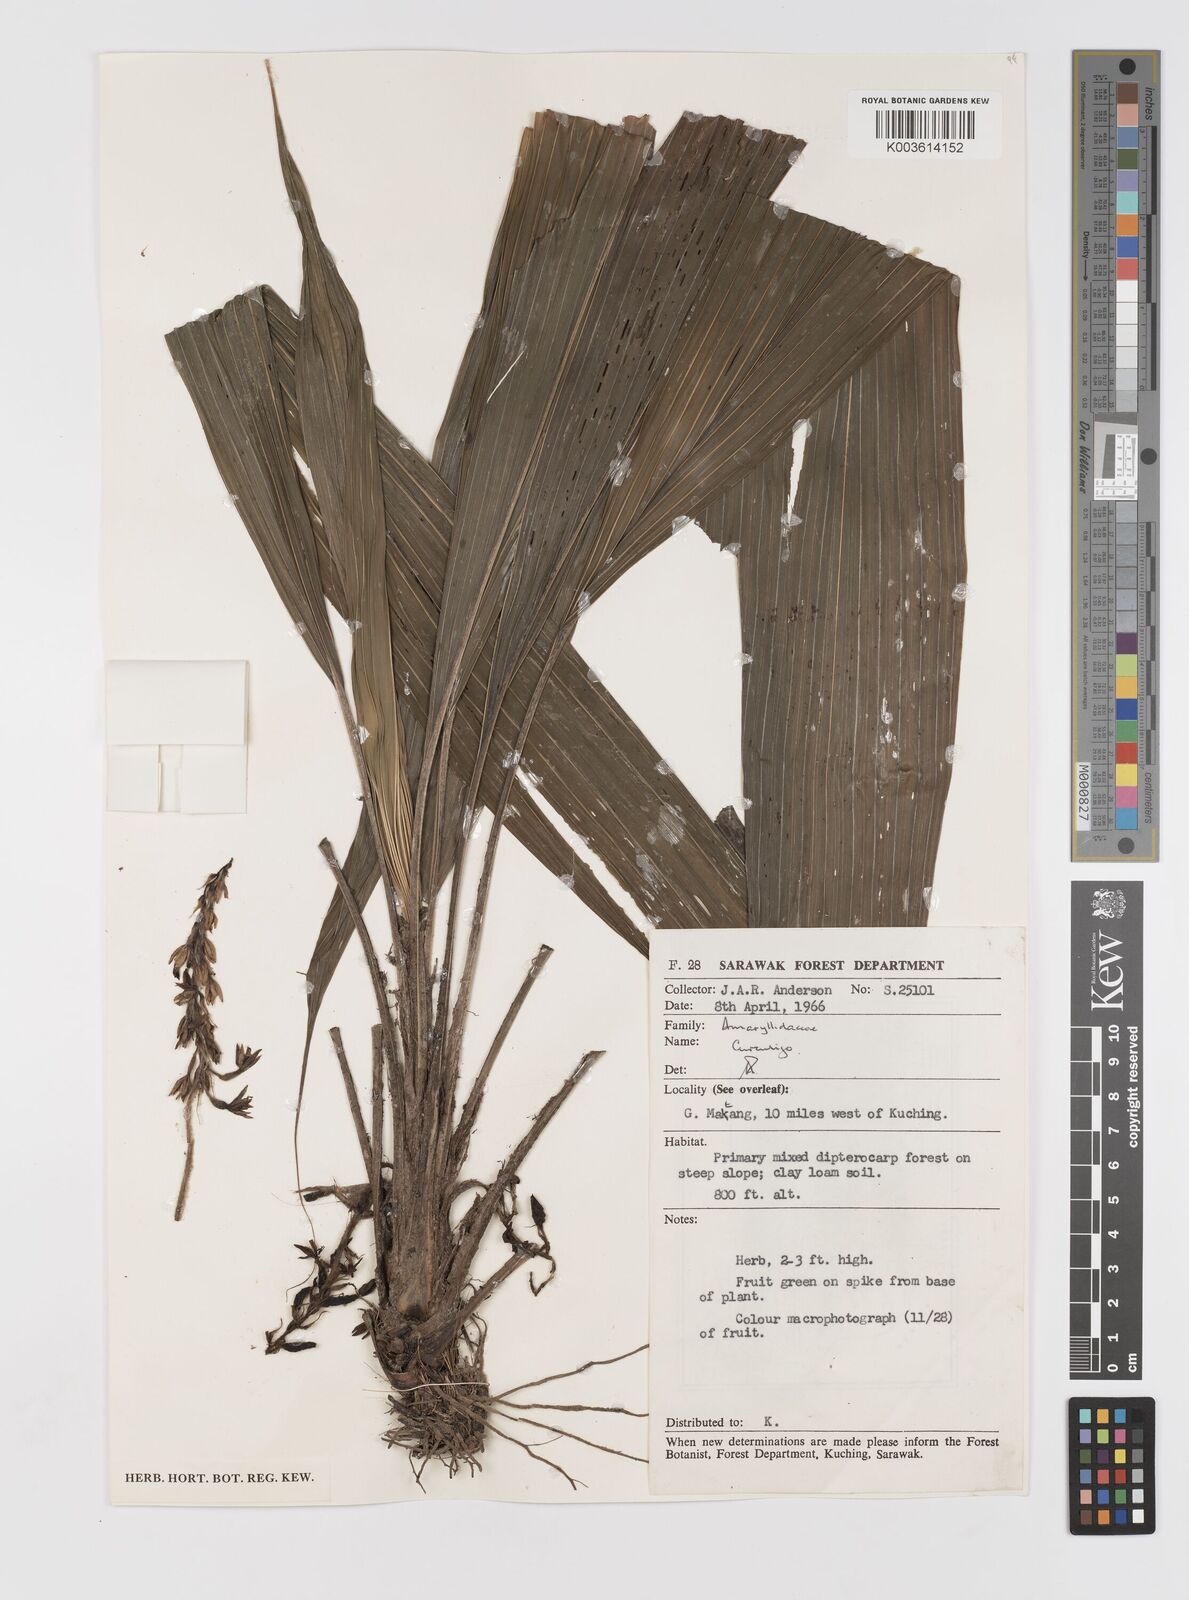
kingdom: Plantae
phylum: Tracheophyta
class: Liliopsida
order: Asparagales
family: Hypoxidaceae
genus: Curculigo
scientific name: Curculigo racemosa
